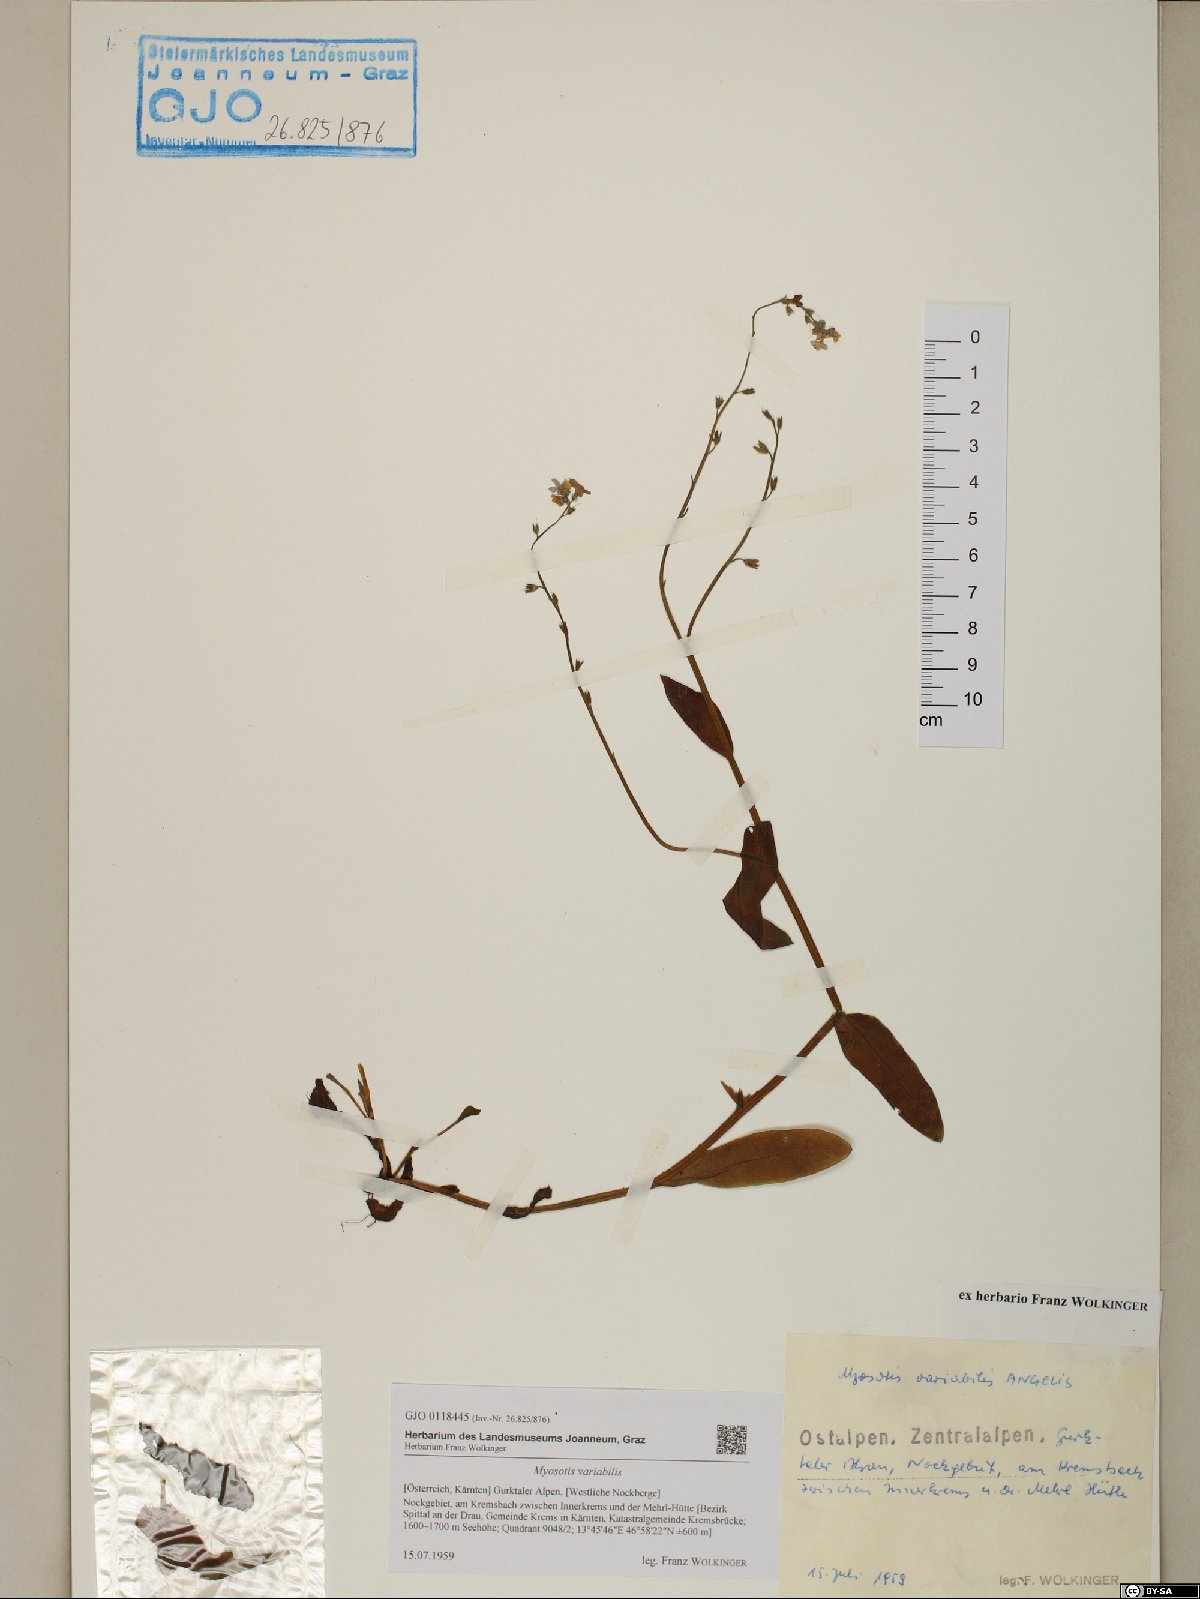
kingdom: Plantae
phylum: Tracheophyta
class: Magnoliopsida
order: Boraginales
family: Boraginaceae
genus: Myosotis
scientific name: Myosotis decumbens
